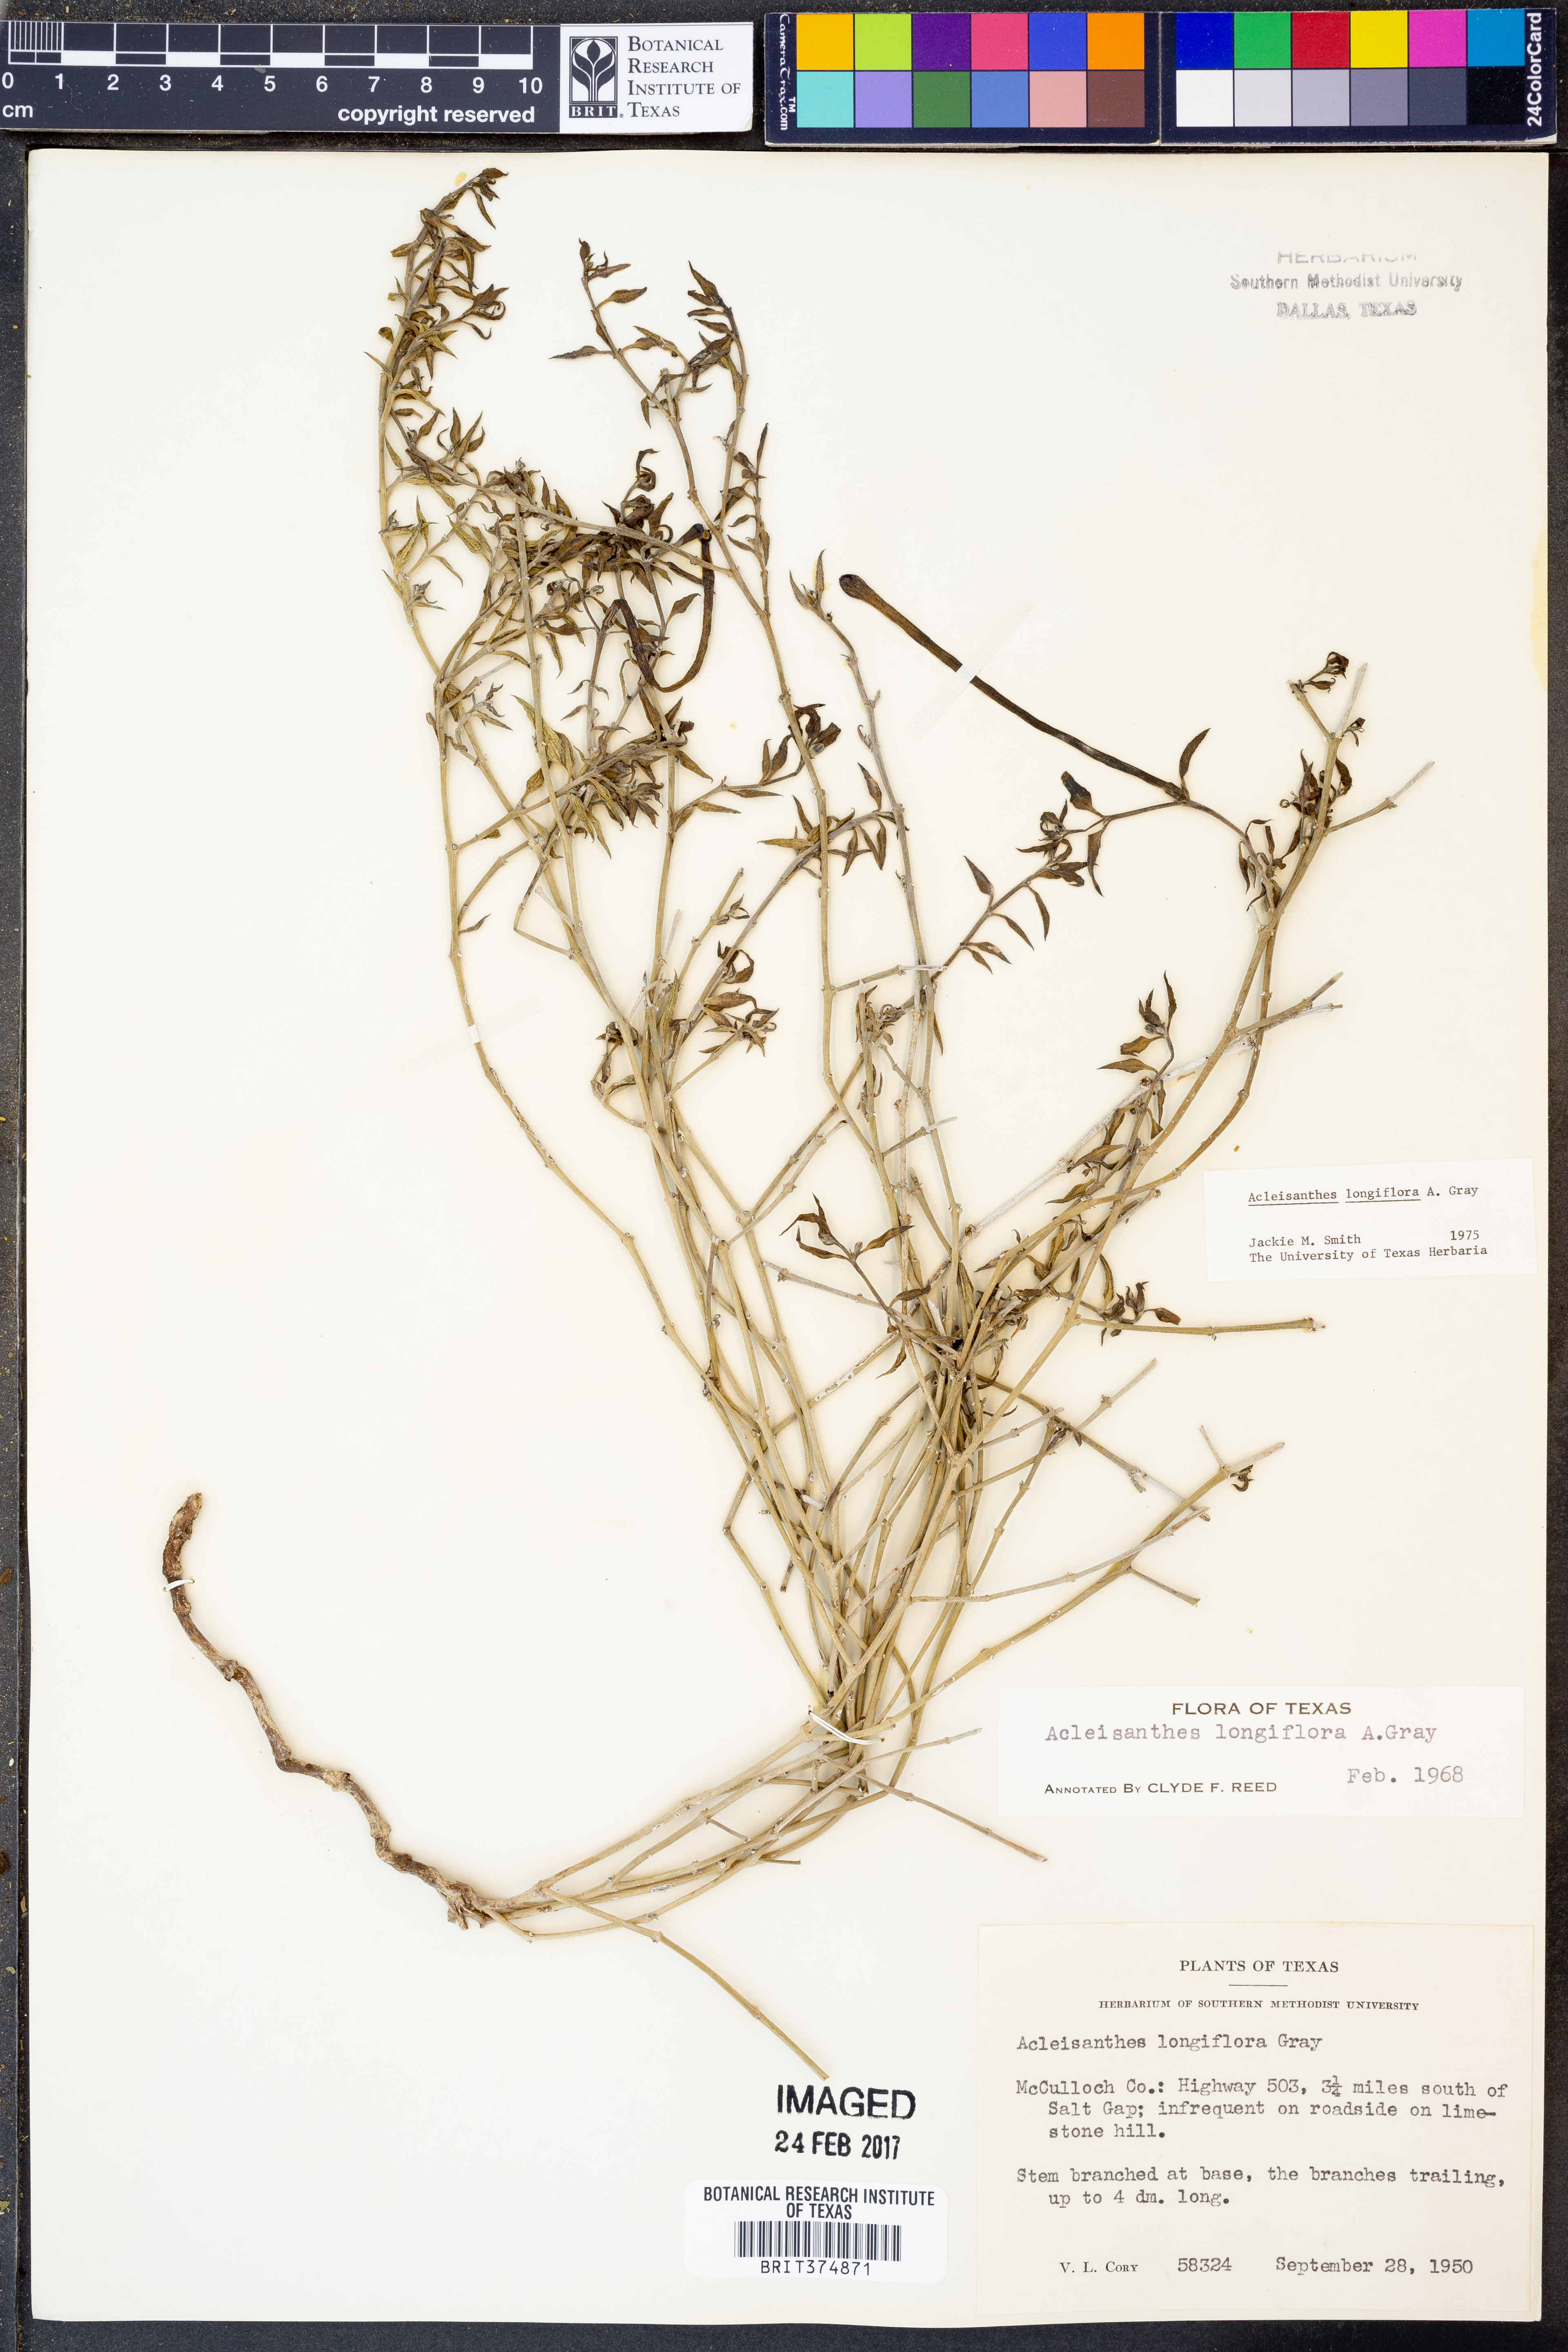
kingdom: Plantae
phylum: Tracheophyta
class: Magnoliopsida
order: Caryophyllales
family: Nyctaginaceae
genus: Acleisanthes
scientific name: Acleisanthes longiflora
